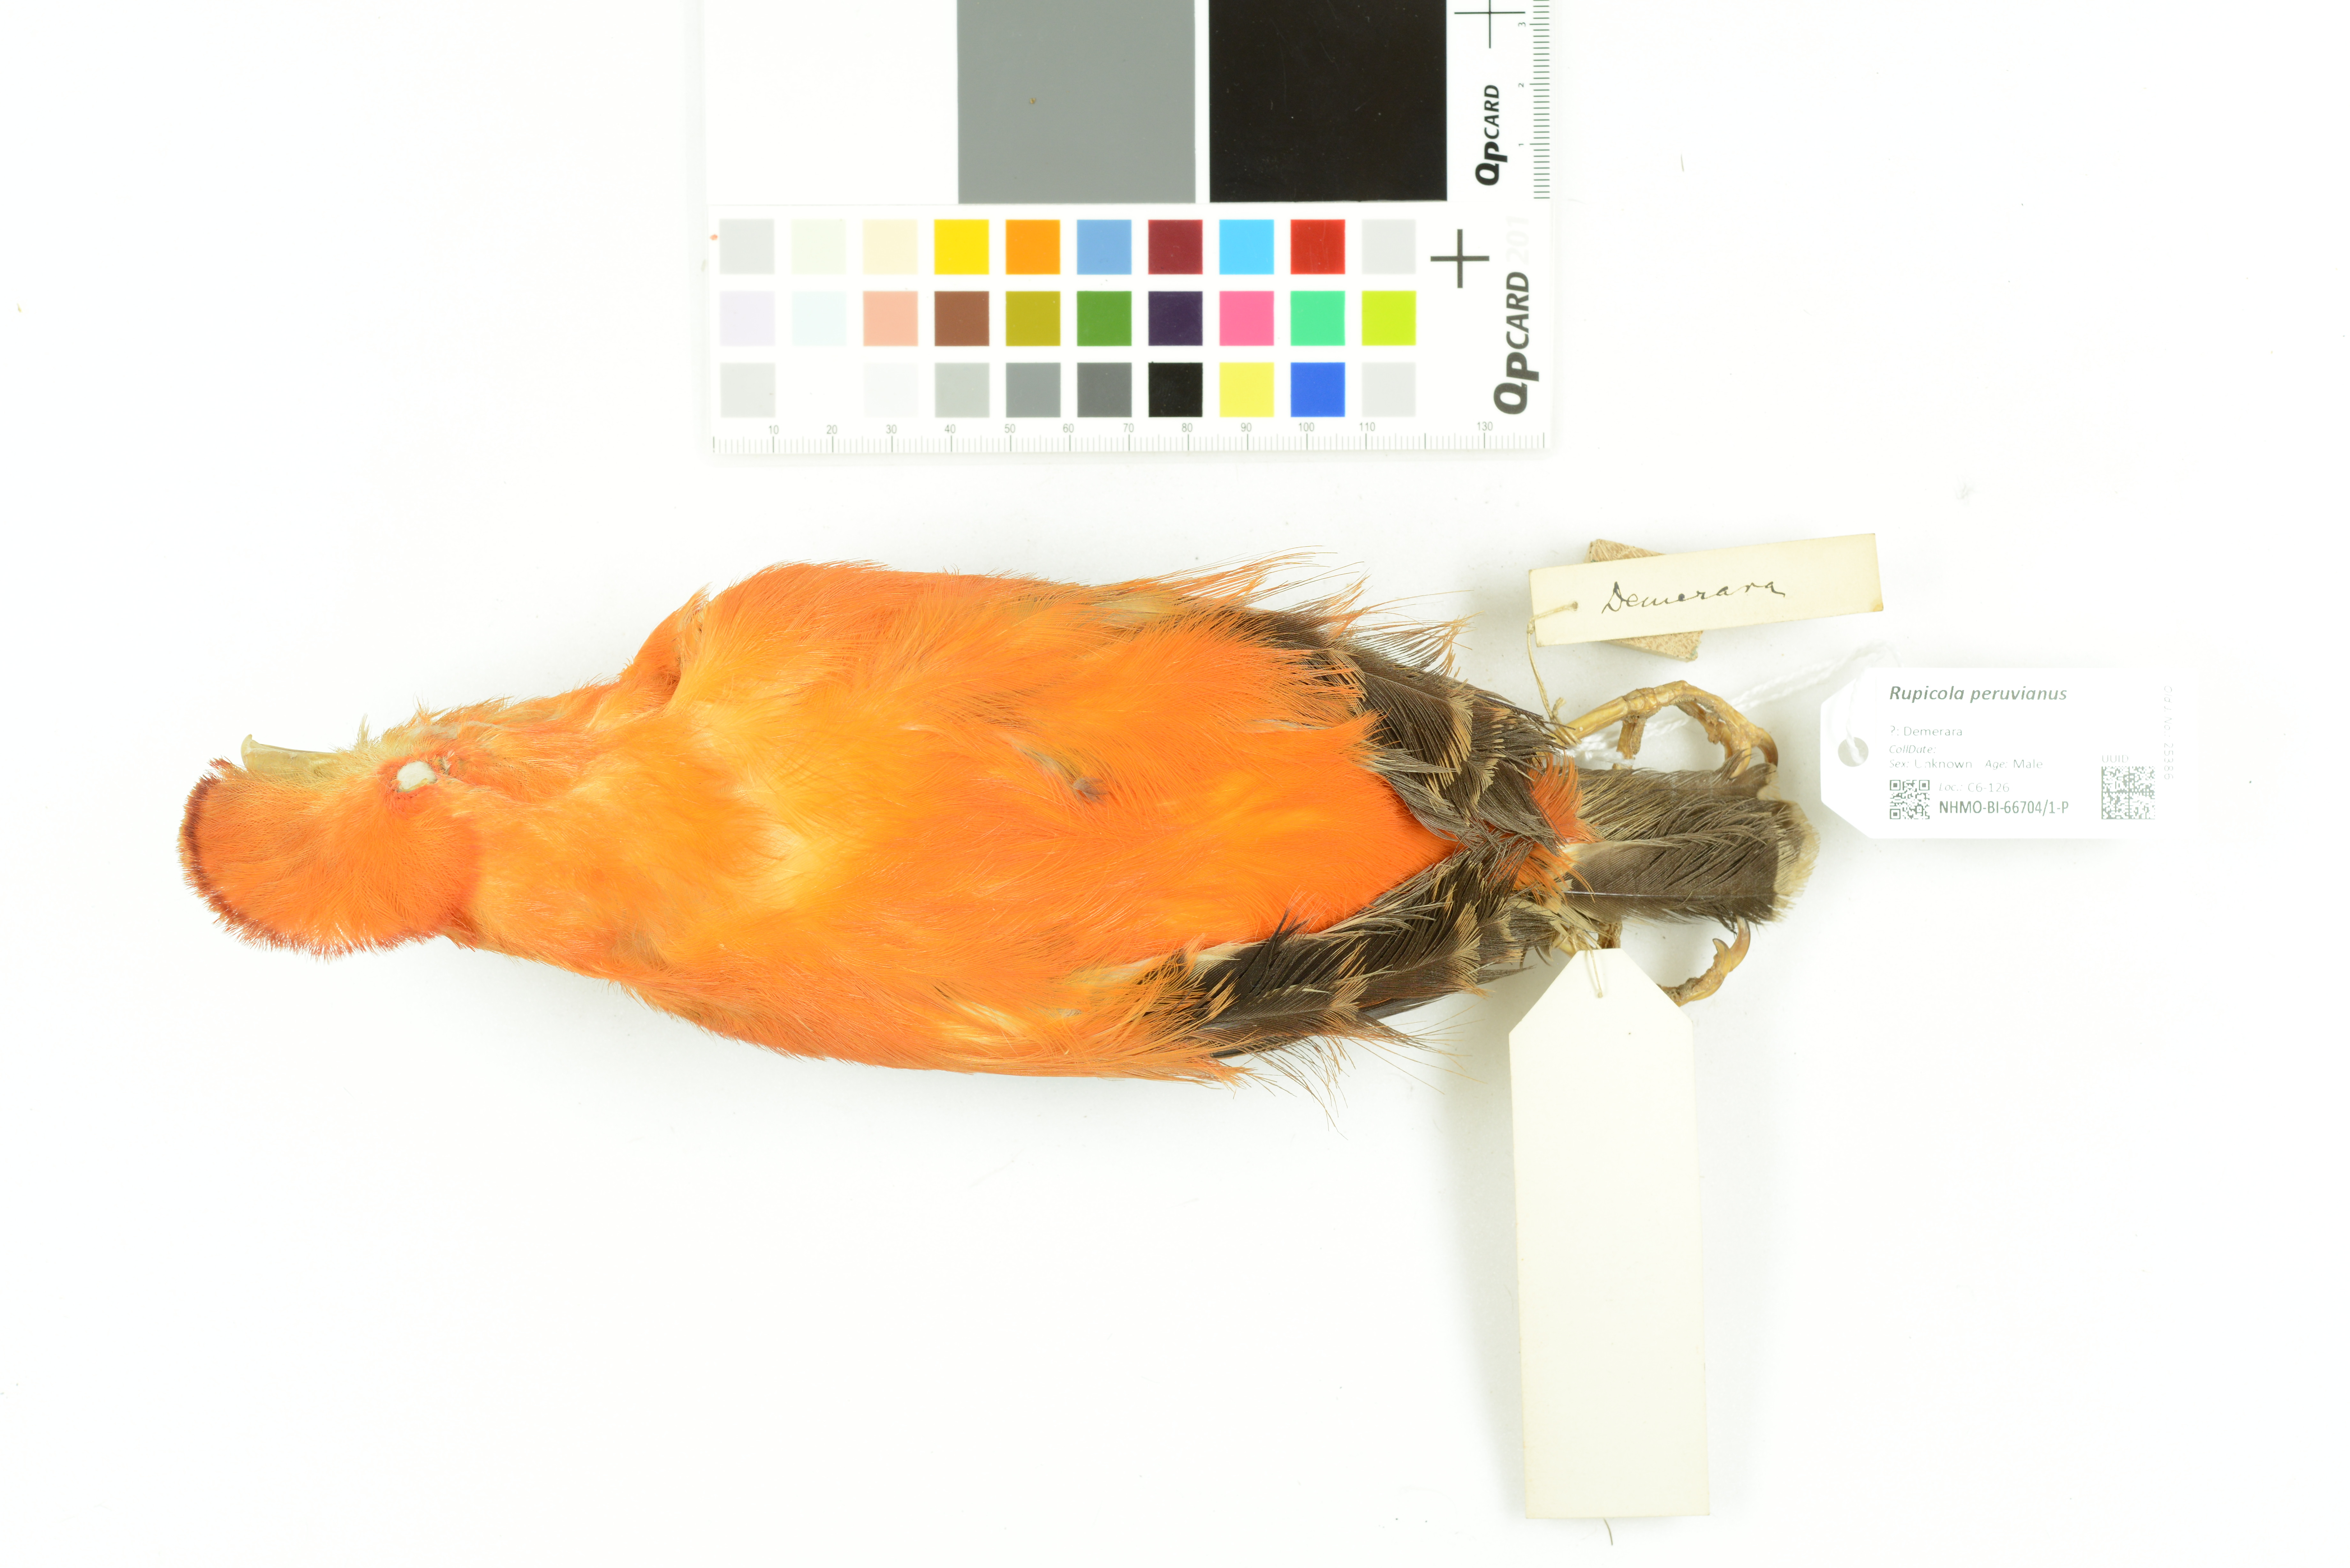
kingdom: Animalia
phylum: Chordata
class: Aves
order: Passeriformes
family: Cotingidae
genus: Rupicola
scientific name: Rupicola peruvianus
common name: Andean cock-of-the-rock
